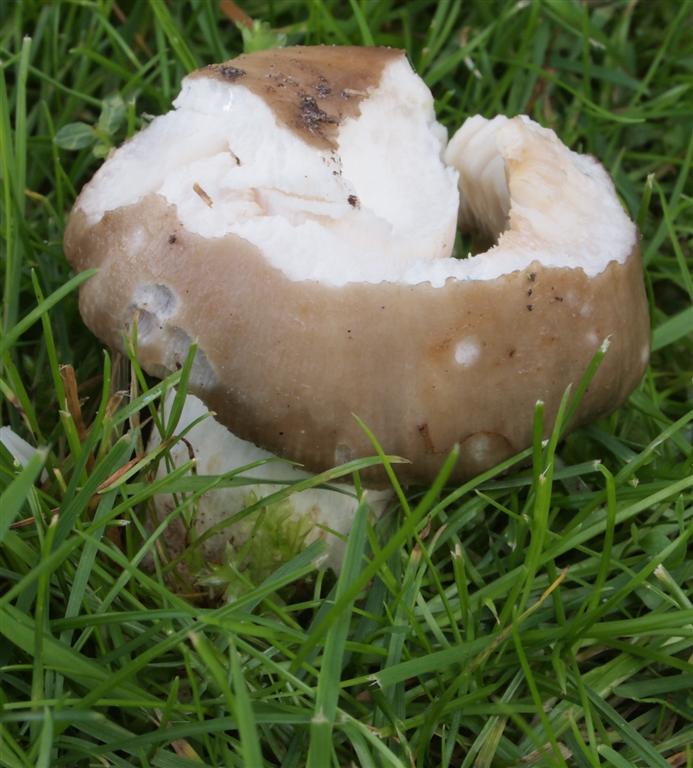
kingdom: Fungi
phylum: Basidiomycota
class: Agaricomycetes
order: Russulales
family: Russulaceae
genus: Russula
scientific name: Russula
